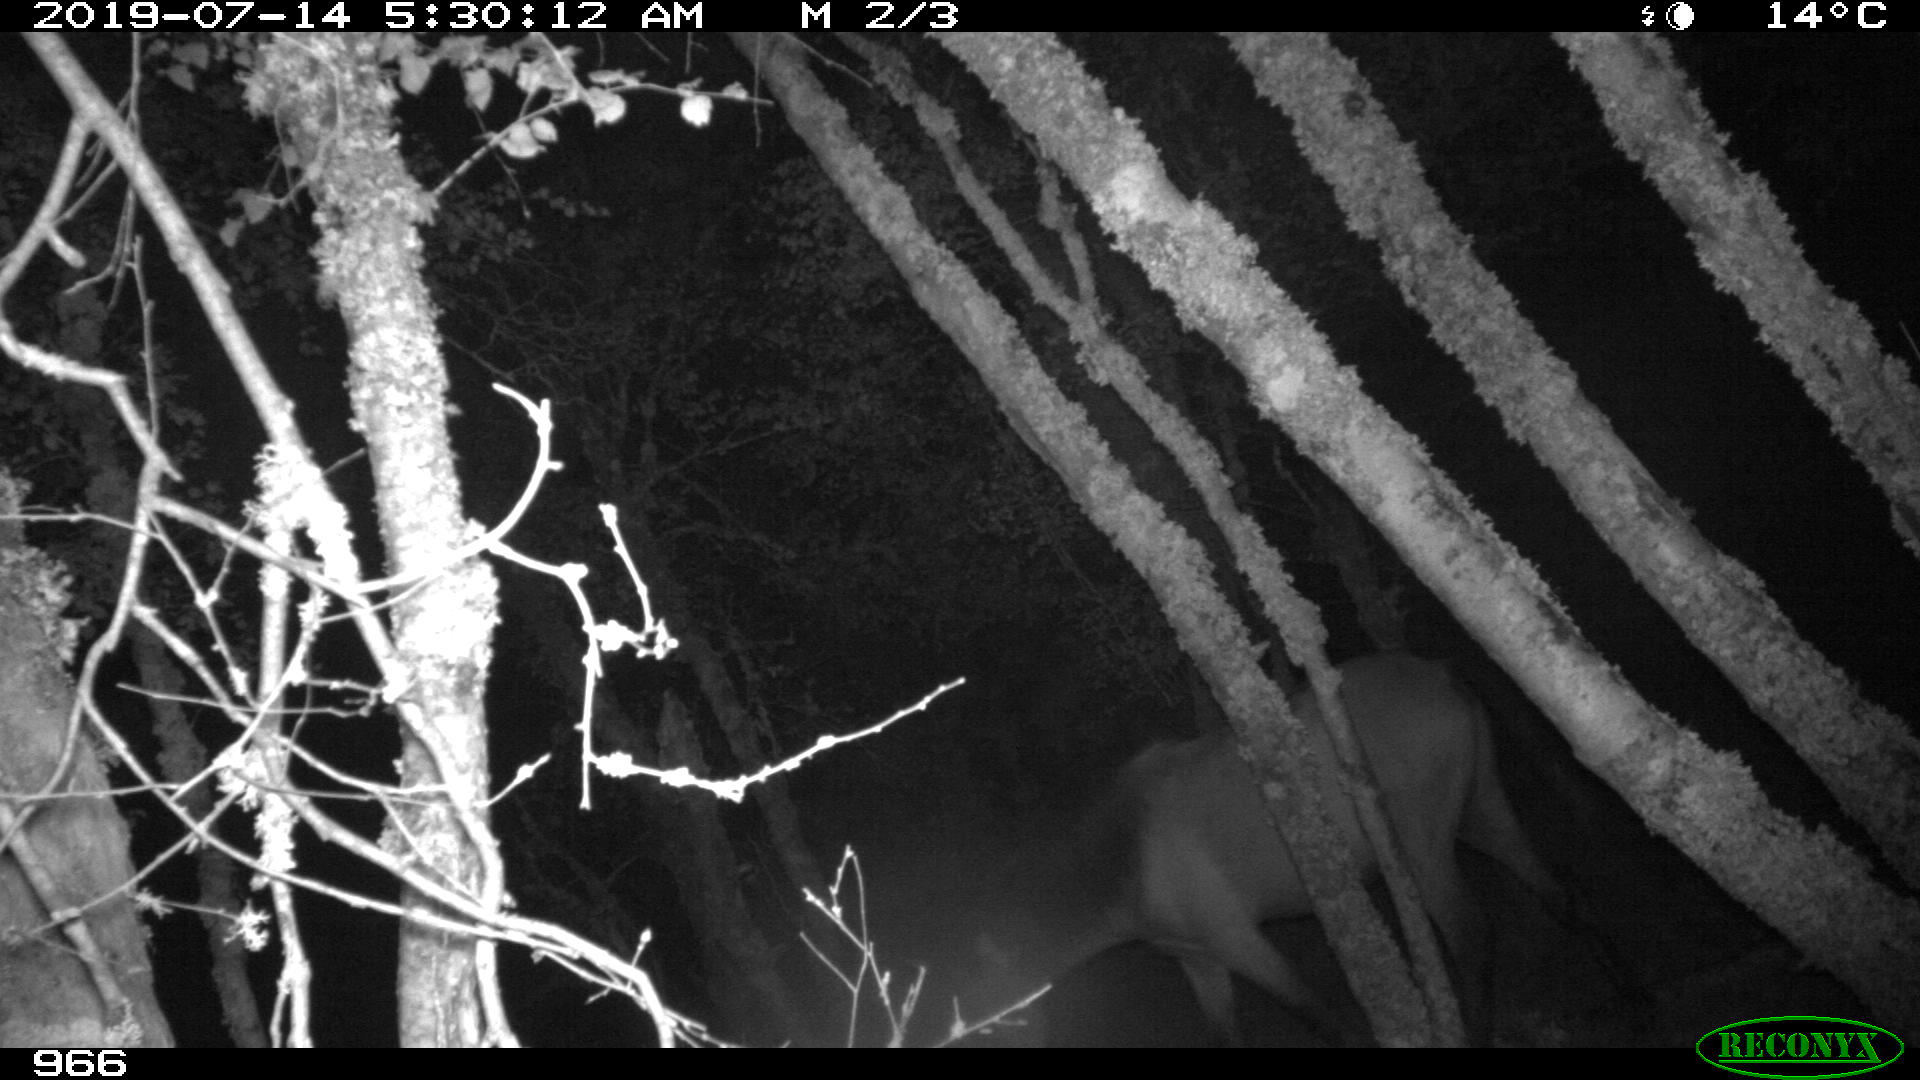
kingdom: Animalia
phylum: Chordata
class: Mammalia
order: Perissodactyla
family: Equidae
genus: Equus
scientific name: Equus caballus
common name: Horse
